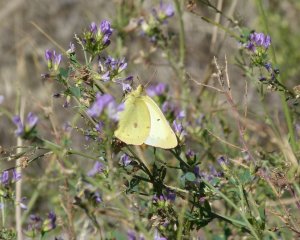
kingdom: Animalia
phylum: Arthropoda
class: Insecta
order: Lepidoptera
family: Pieridae
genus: Colias
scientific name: Colias philodice
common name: Clouded Sulphur
